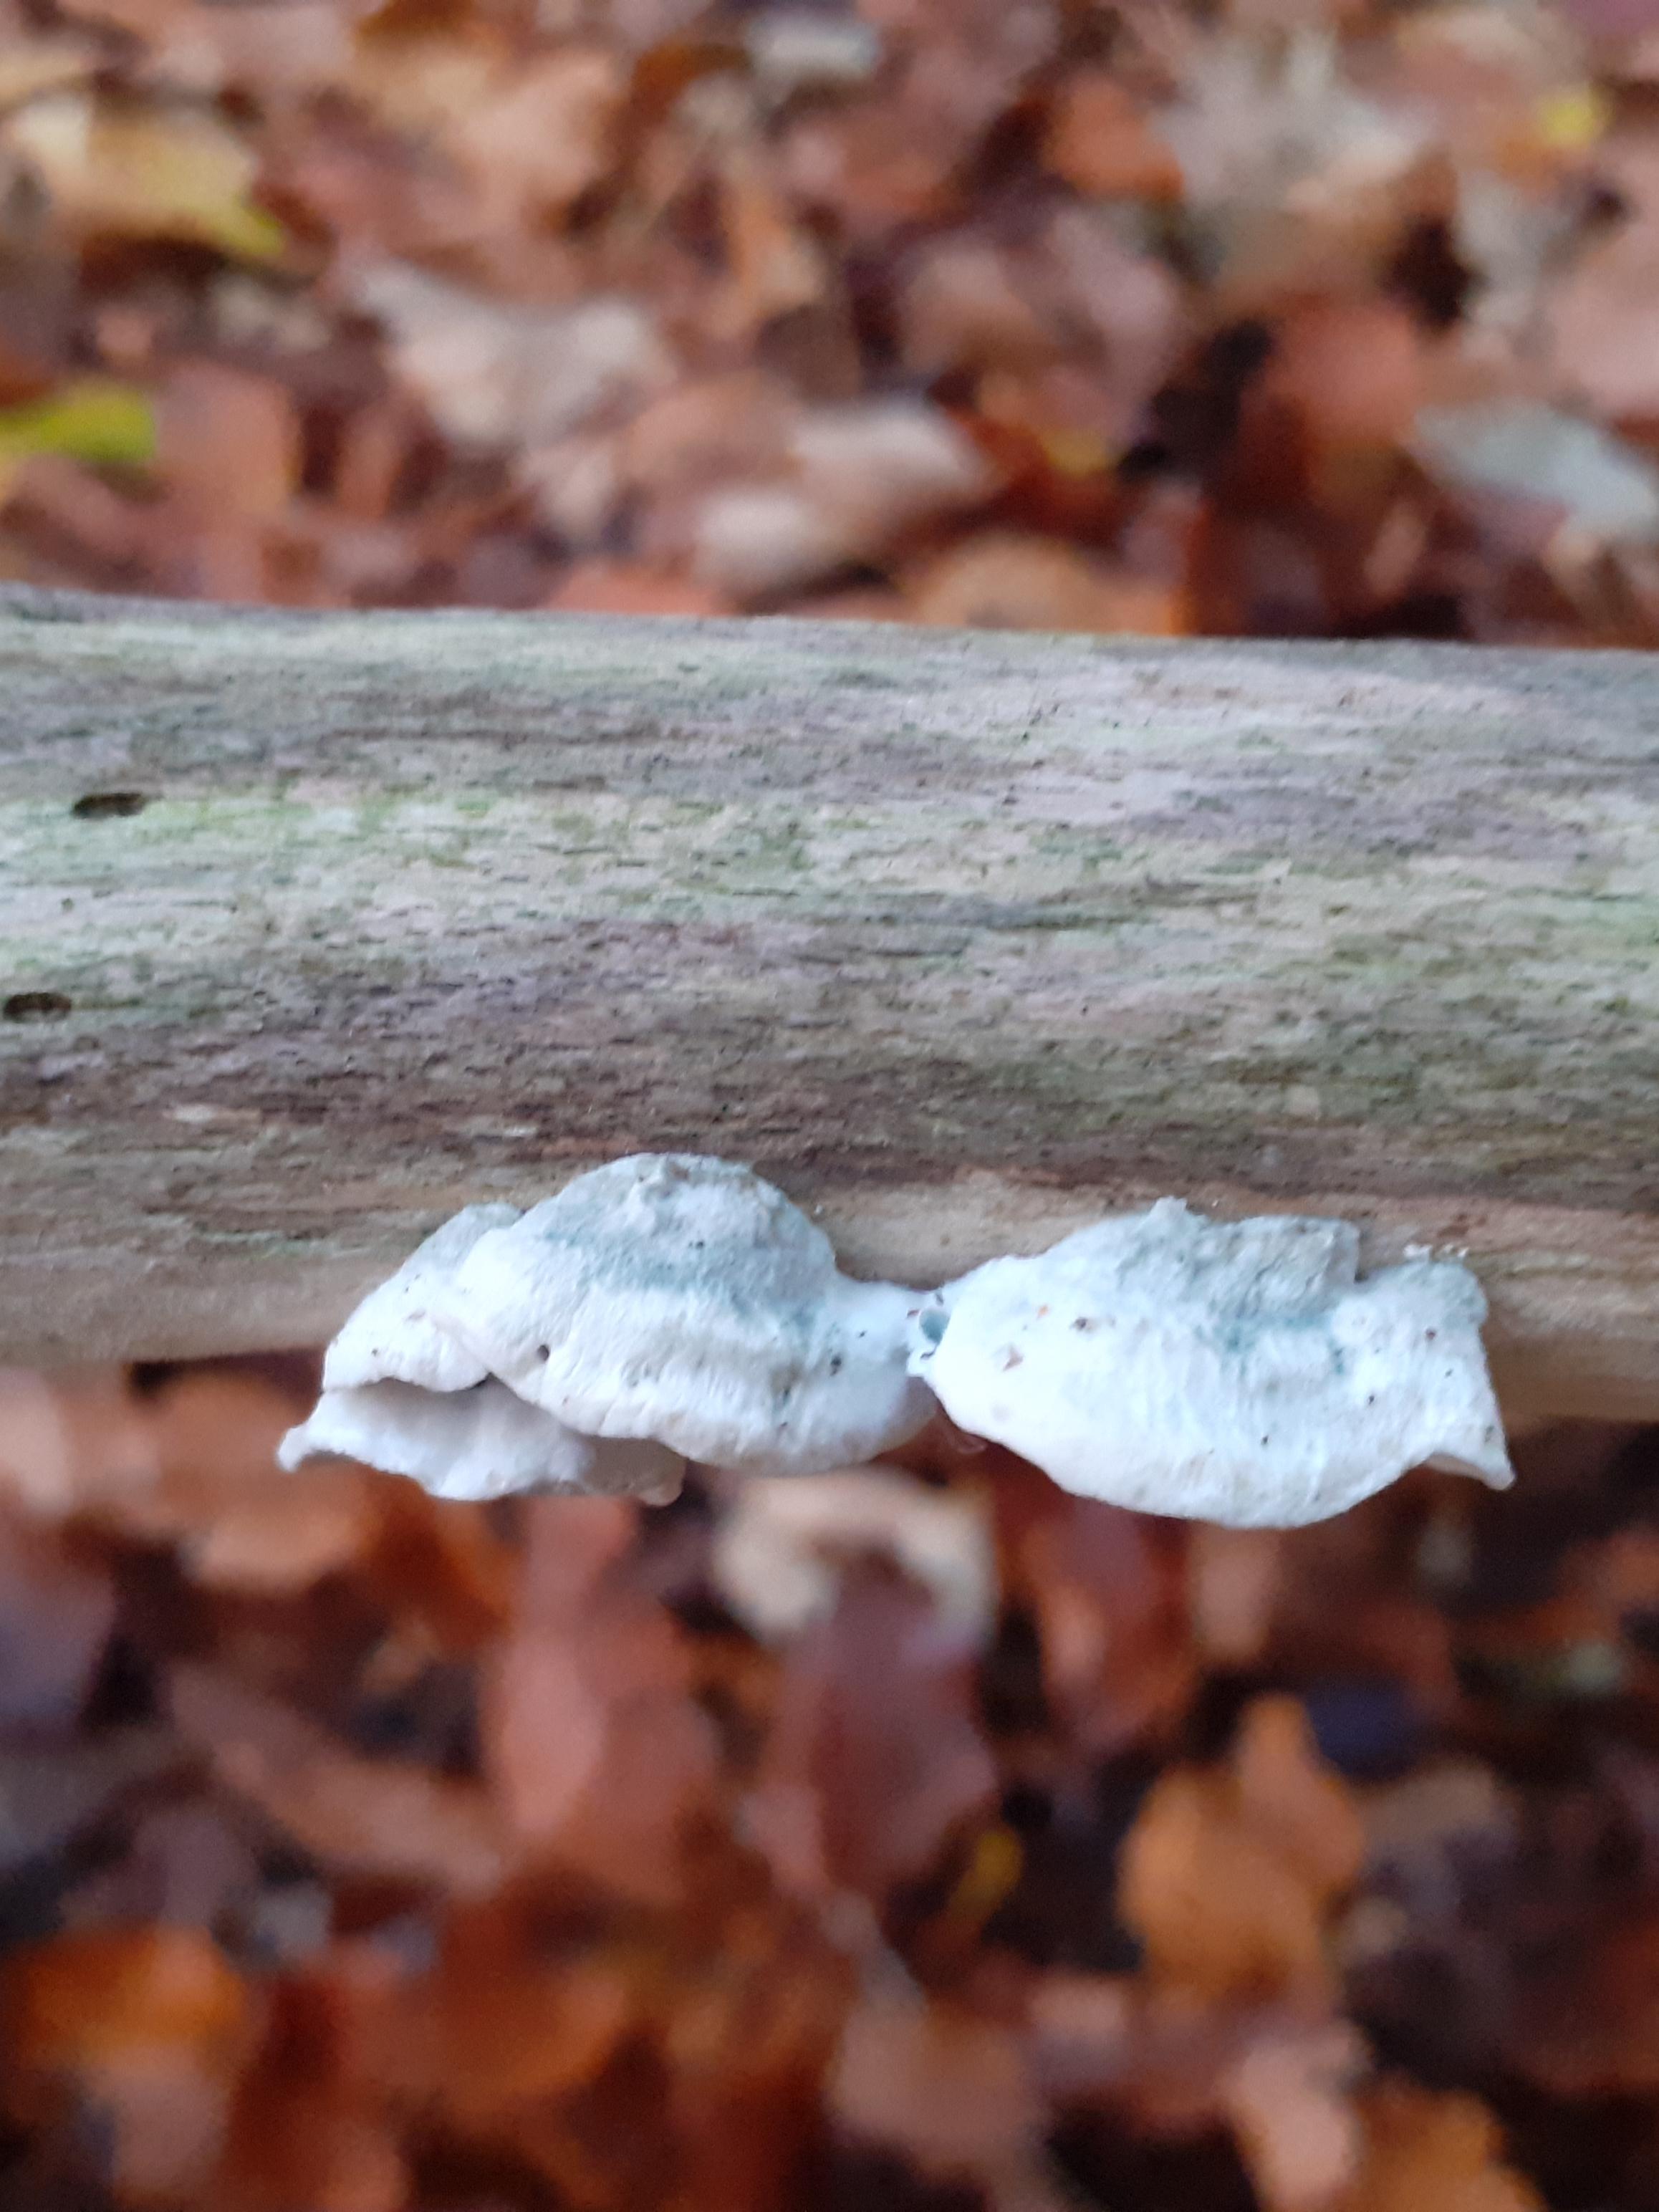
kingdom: Fungi
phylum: Basidiomycota
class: Agaricomycetes
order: Polyporales
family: Polyporaceae
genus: Cyanosporus
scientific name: Cyanosporus alni
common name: blegblå kødporesvamp
